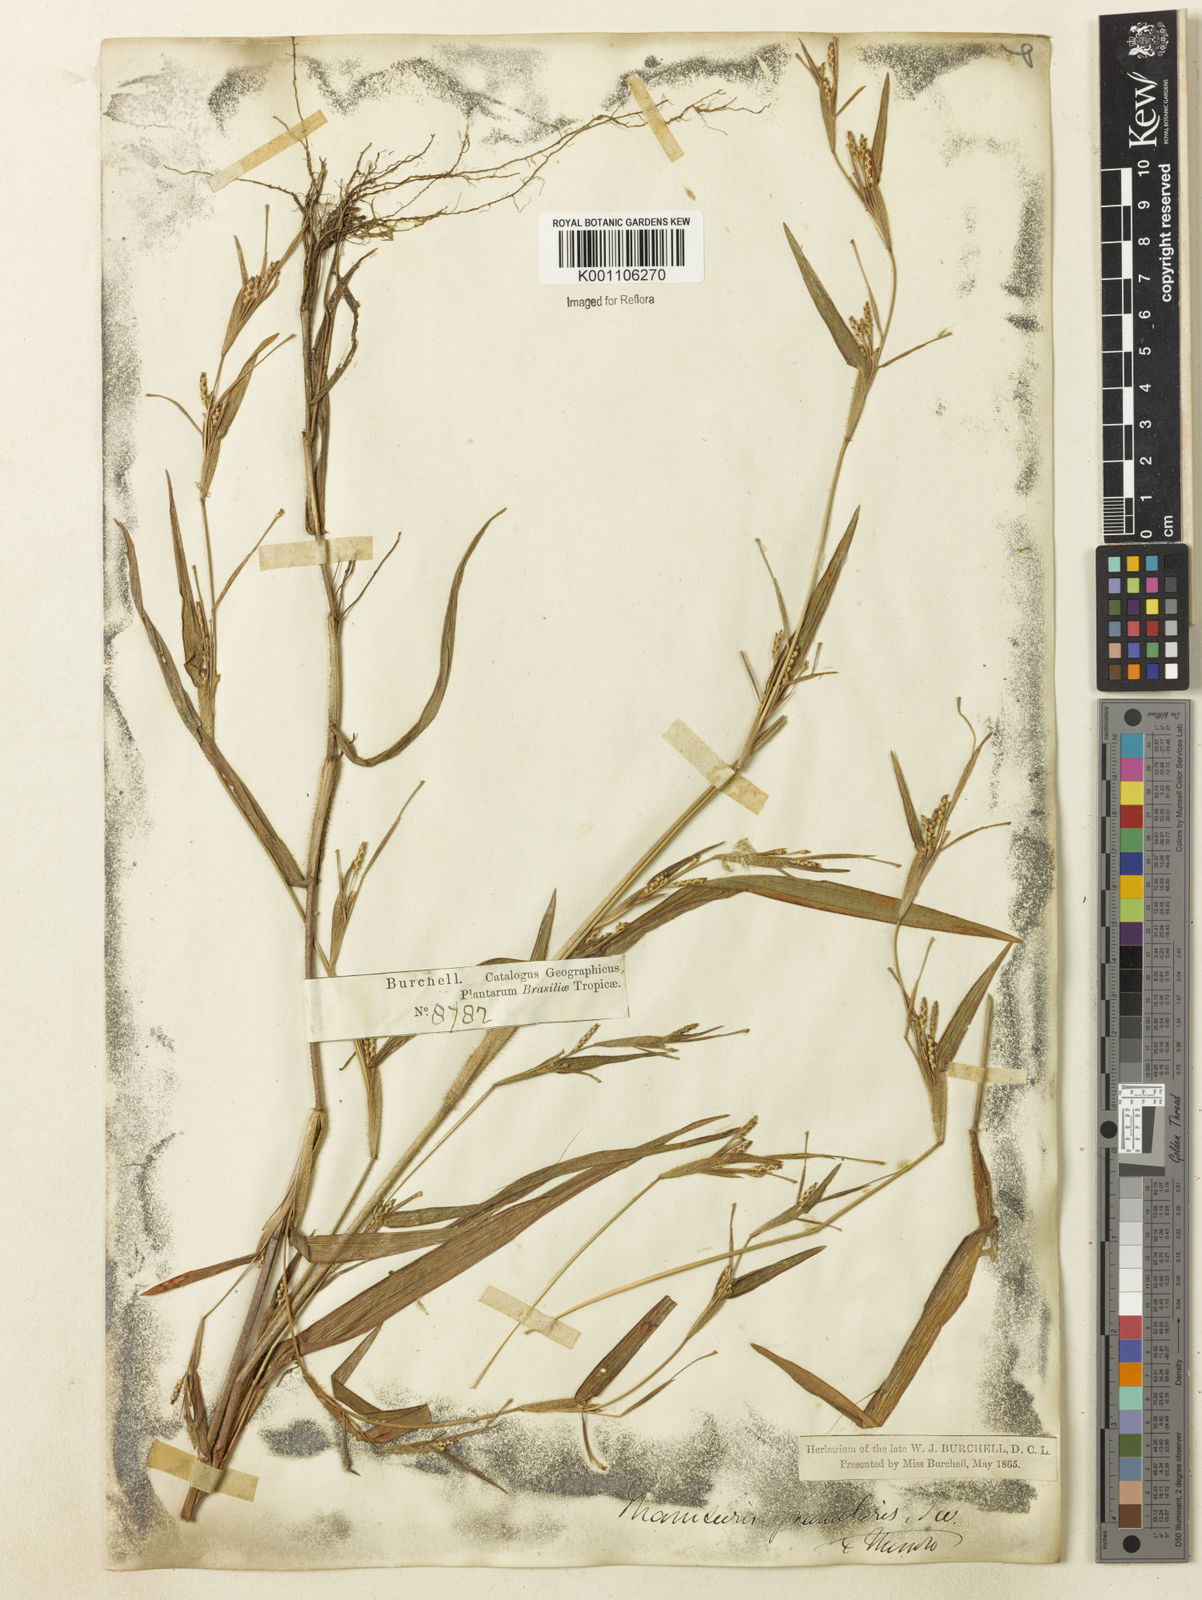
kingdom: Plantae
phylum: Tracheophyta
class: Liliopsida
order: Poales
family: Poaceae
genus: Hackelochloa
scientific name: Hackelochloa granularis
